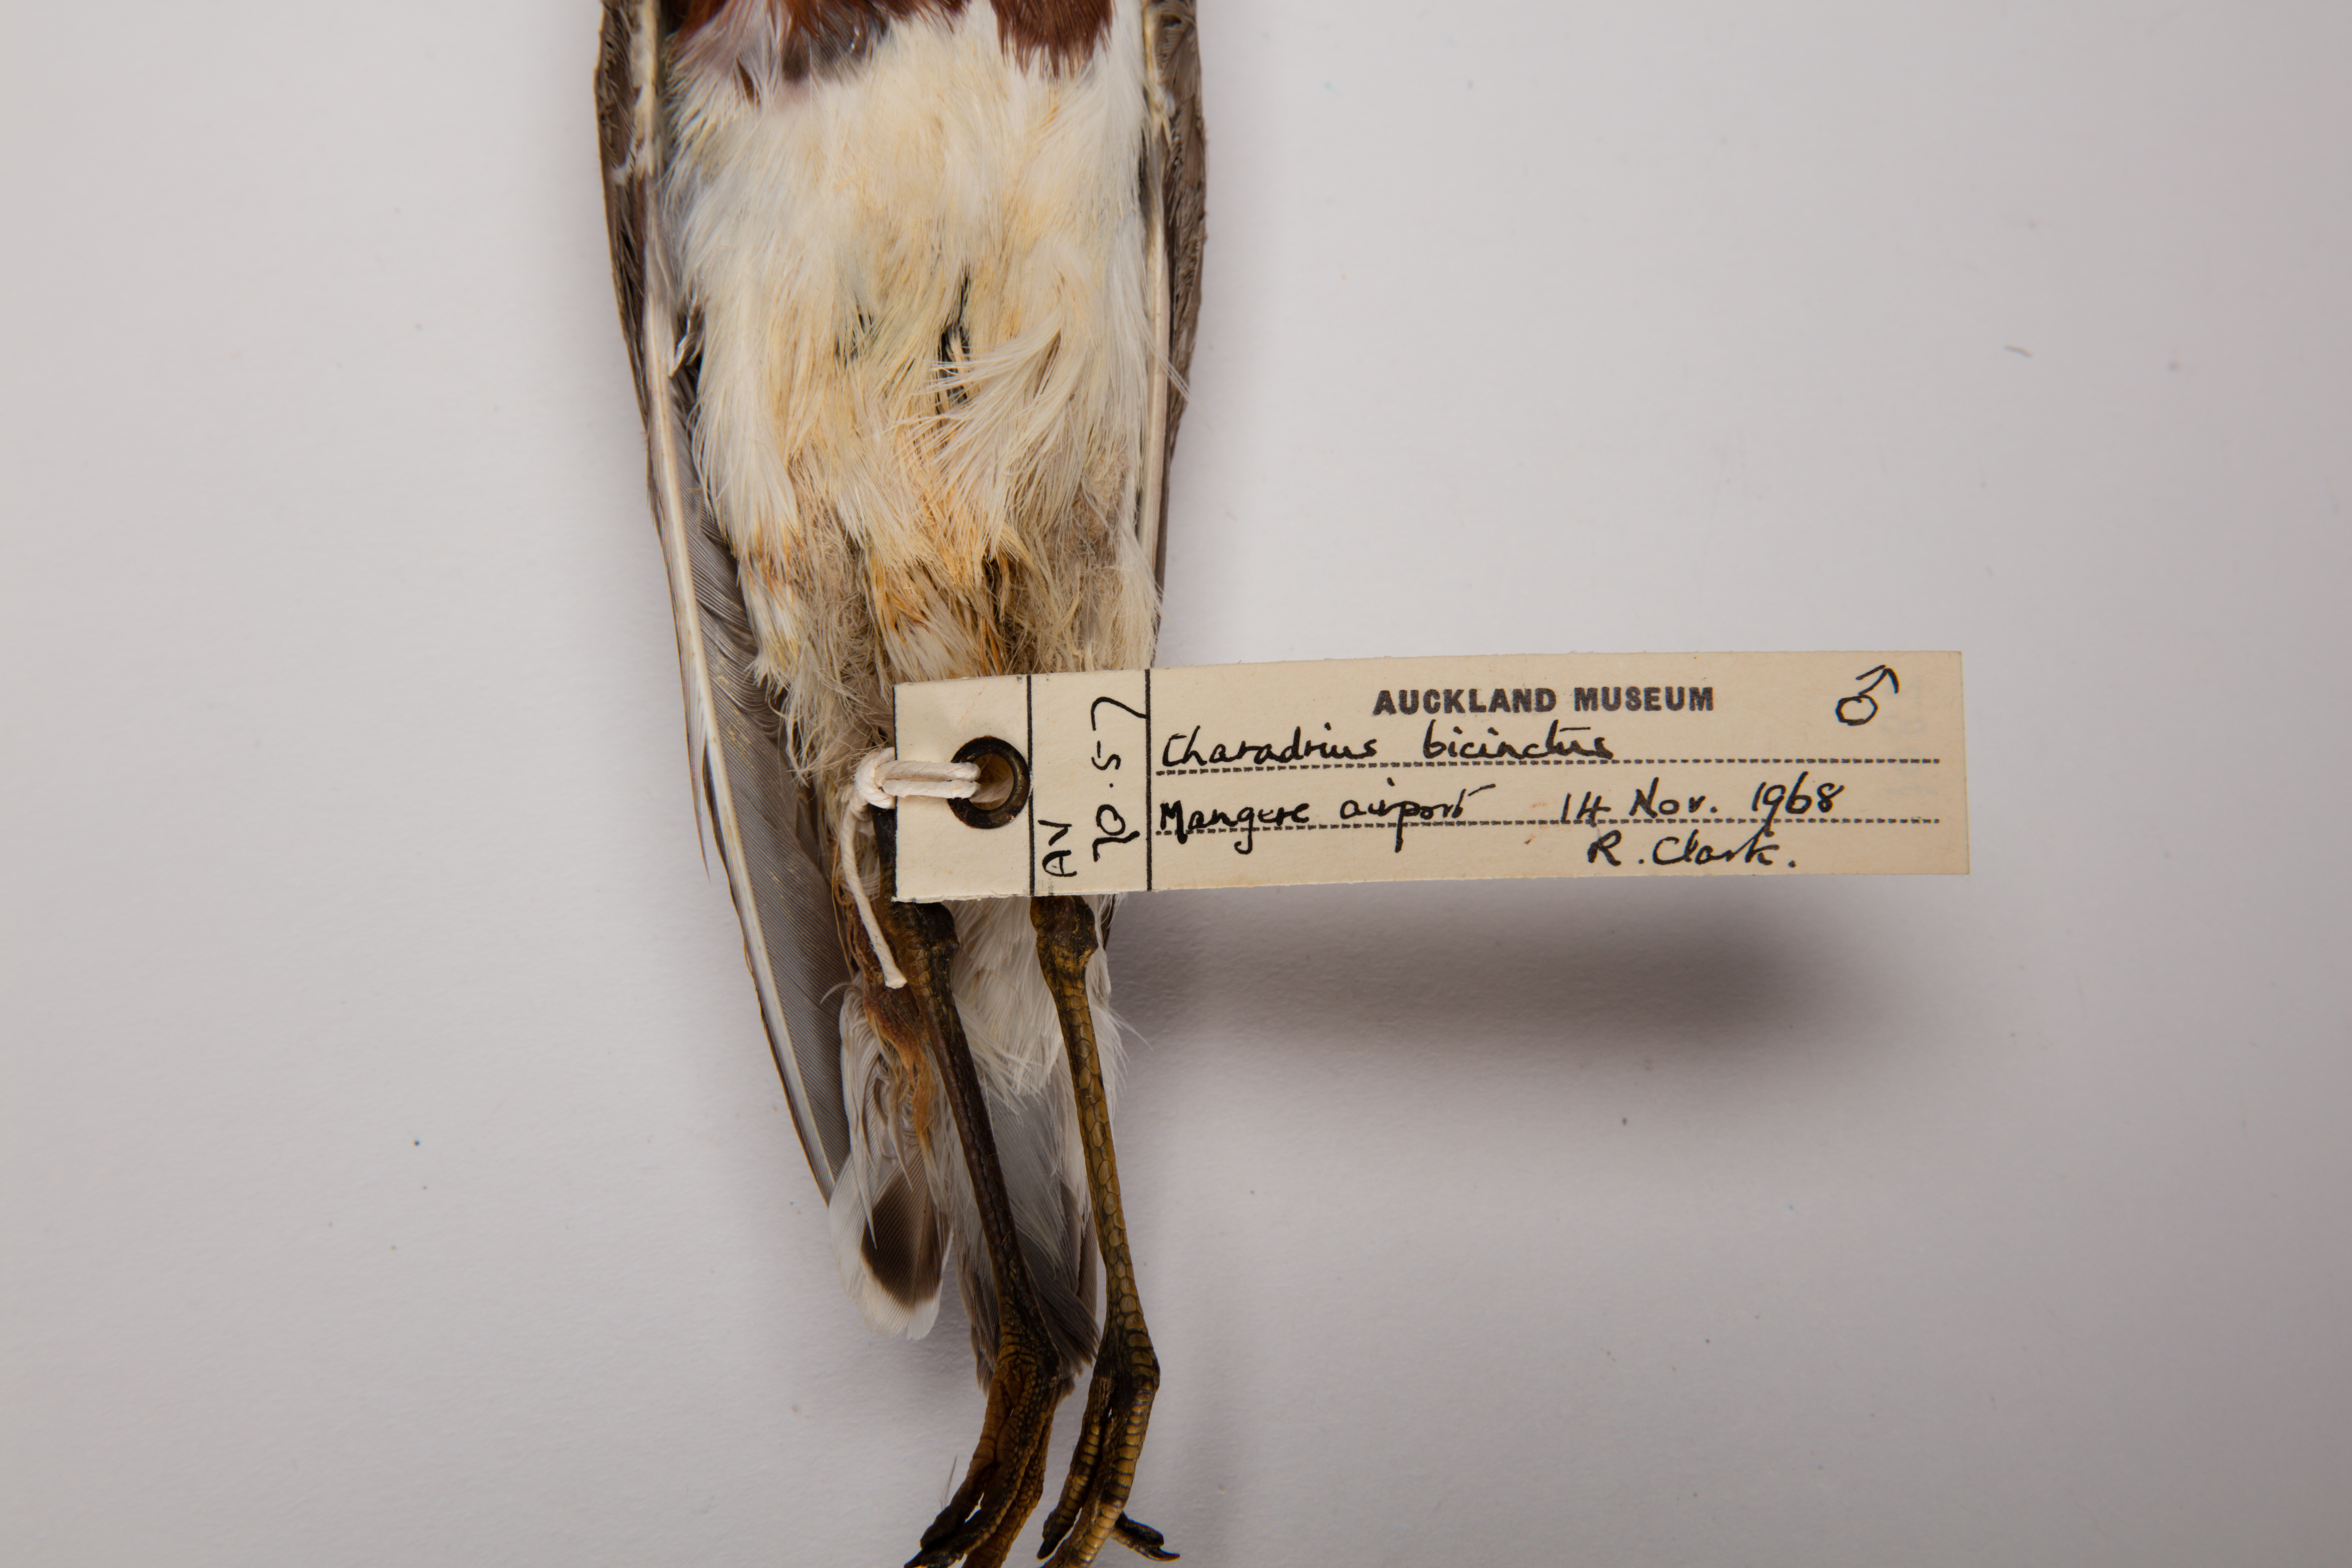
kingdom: Animalia
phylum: Chordata
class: Aves
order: Charadriiformes
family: Charadriidae
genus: Charadrius
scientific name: Charadrius bicinctus
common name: Double-banded plover
